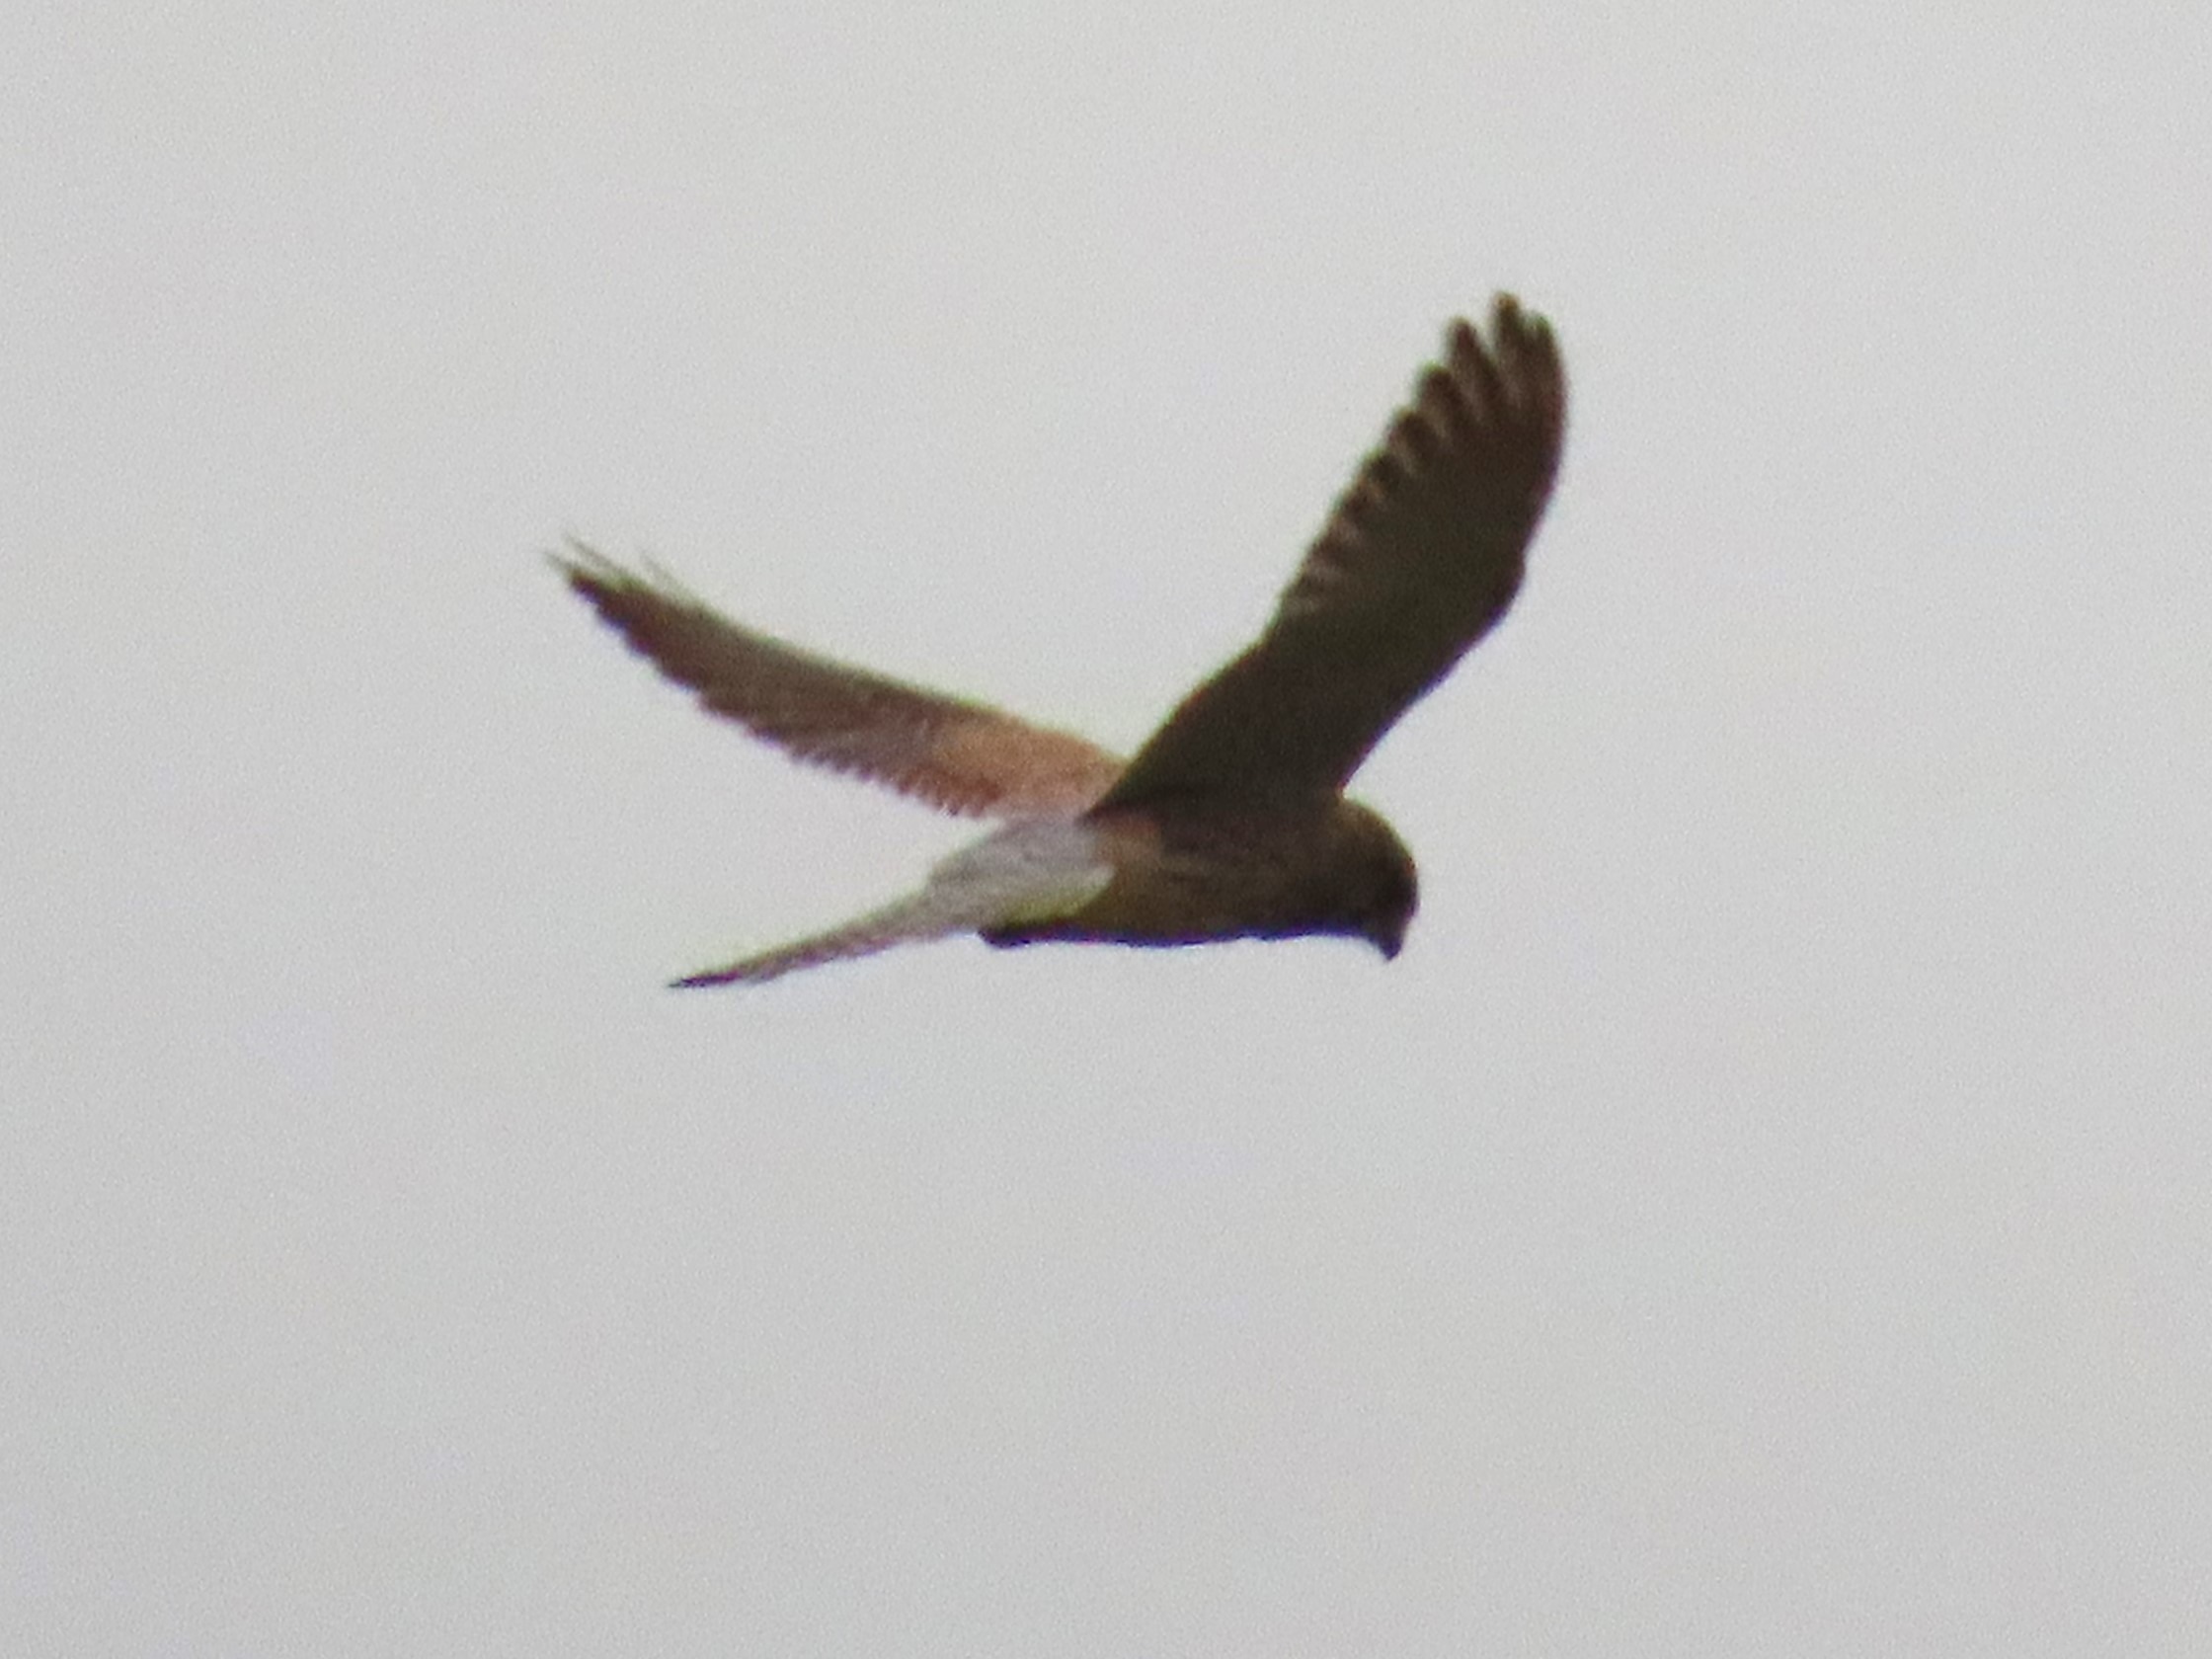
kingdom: Animalia
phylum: Chordata
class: Aves
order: Falconiformes
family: Falconidae
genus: Falco
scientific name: Falco tinnunculus
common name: Tårnfalk
